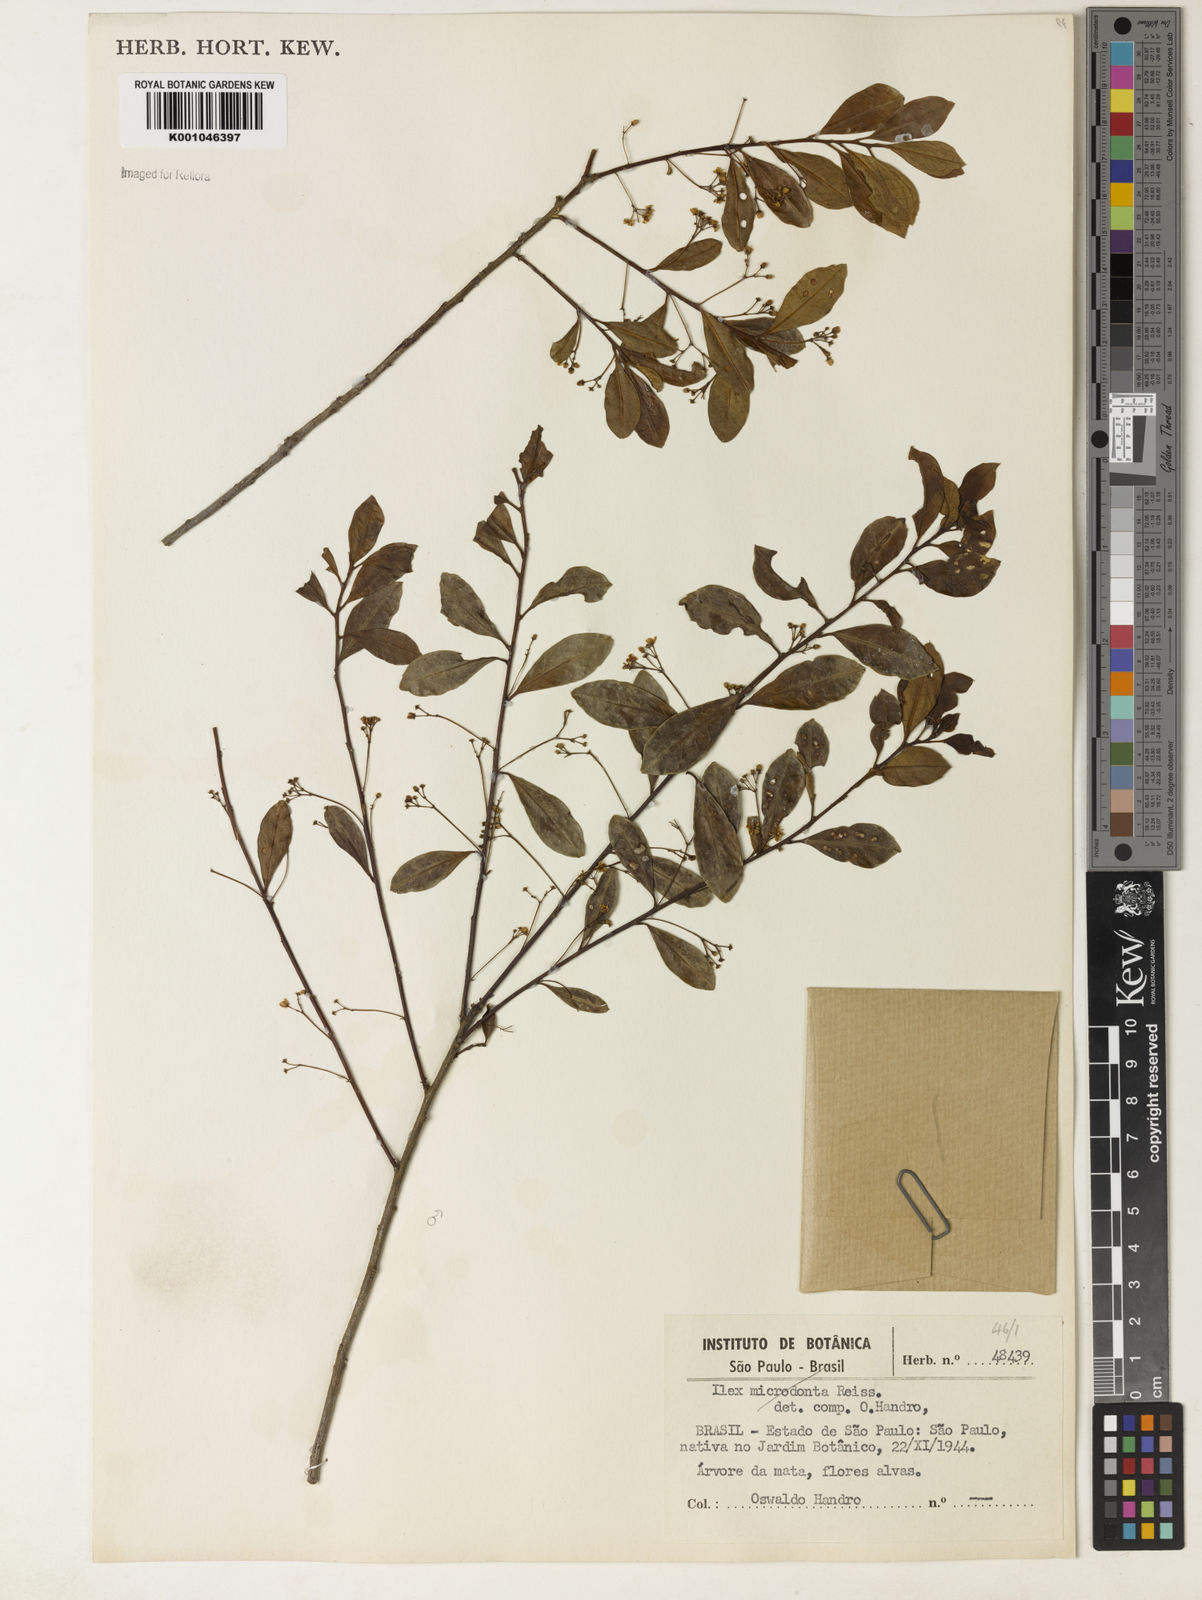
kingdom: Plantae
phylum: Tracheophyta
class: Magnoliopsida
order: Aquifoliales
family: Aquifoliaceae
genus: Ilex
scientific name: Ilex pseudobuxus
